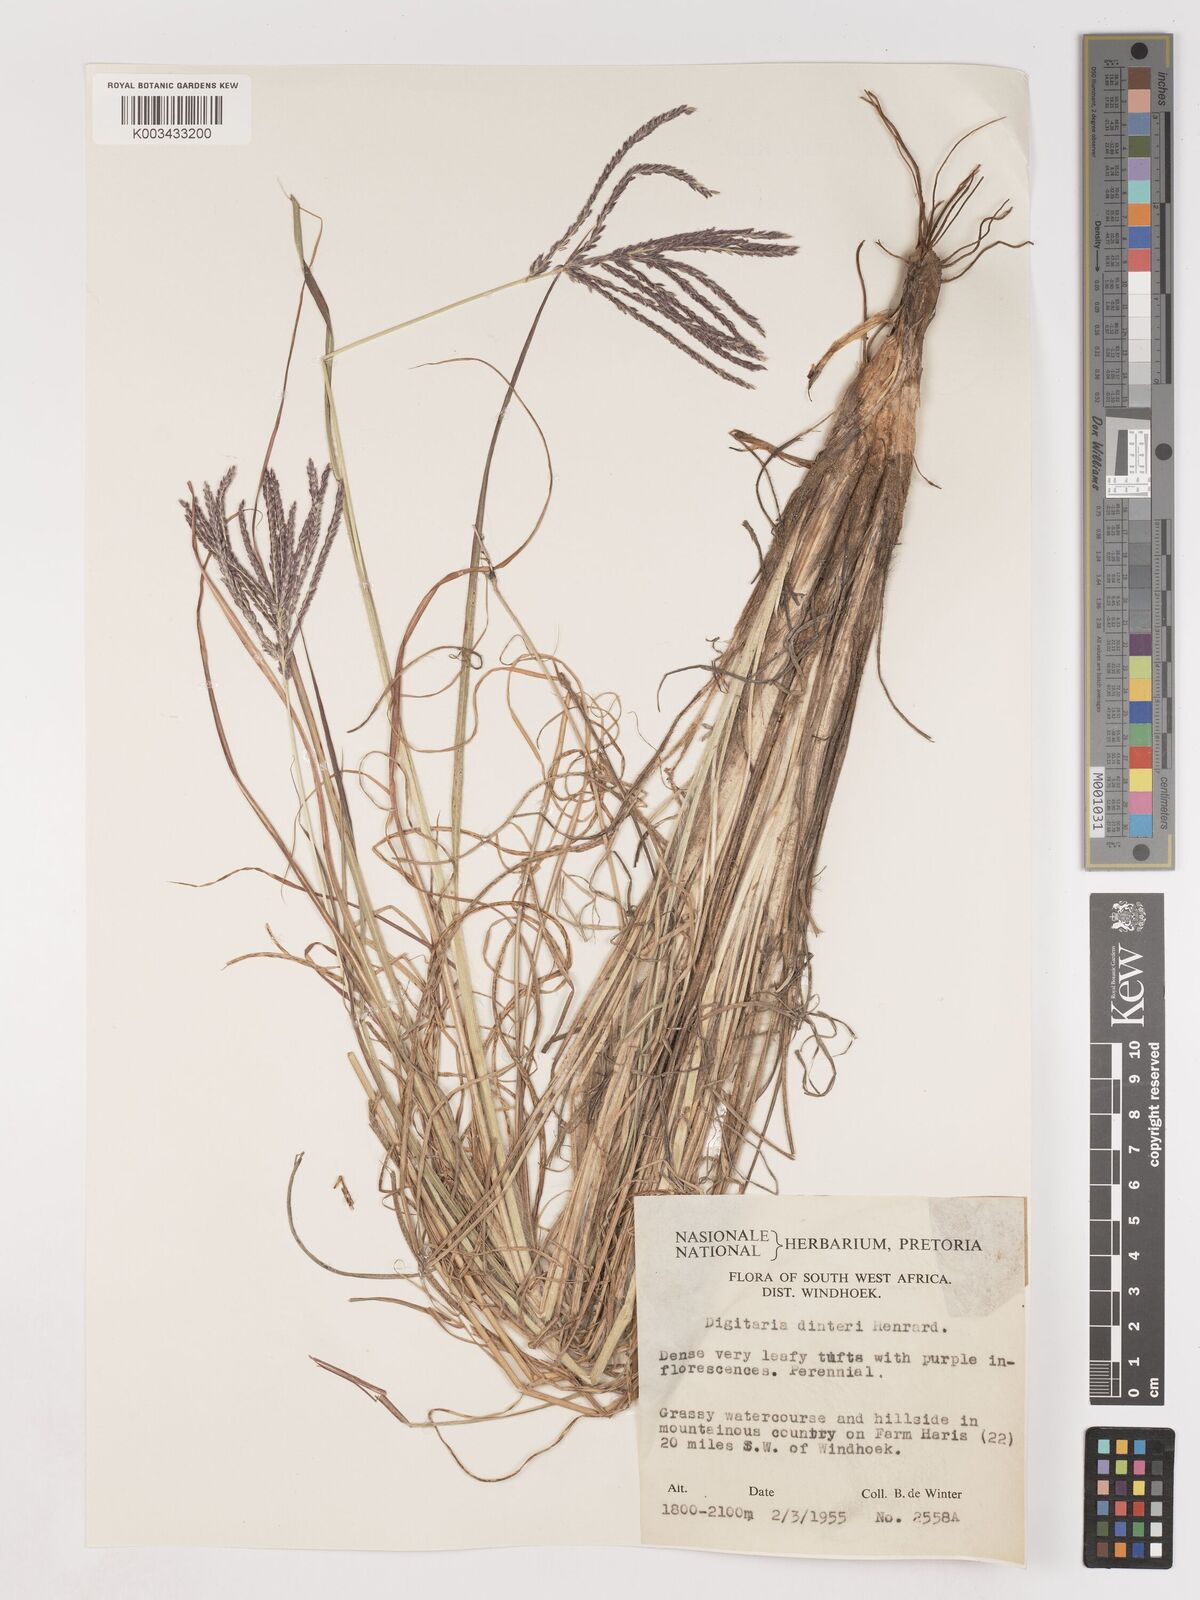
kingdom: Plantae
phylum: Tracheophyta
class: Liliopsida
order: Poales
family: Poaceae
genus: Digitaria
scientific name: Digitaria eriantha
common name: Digitgrass
